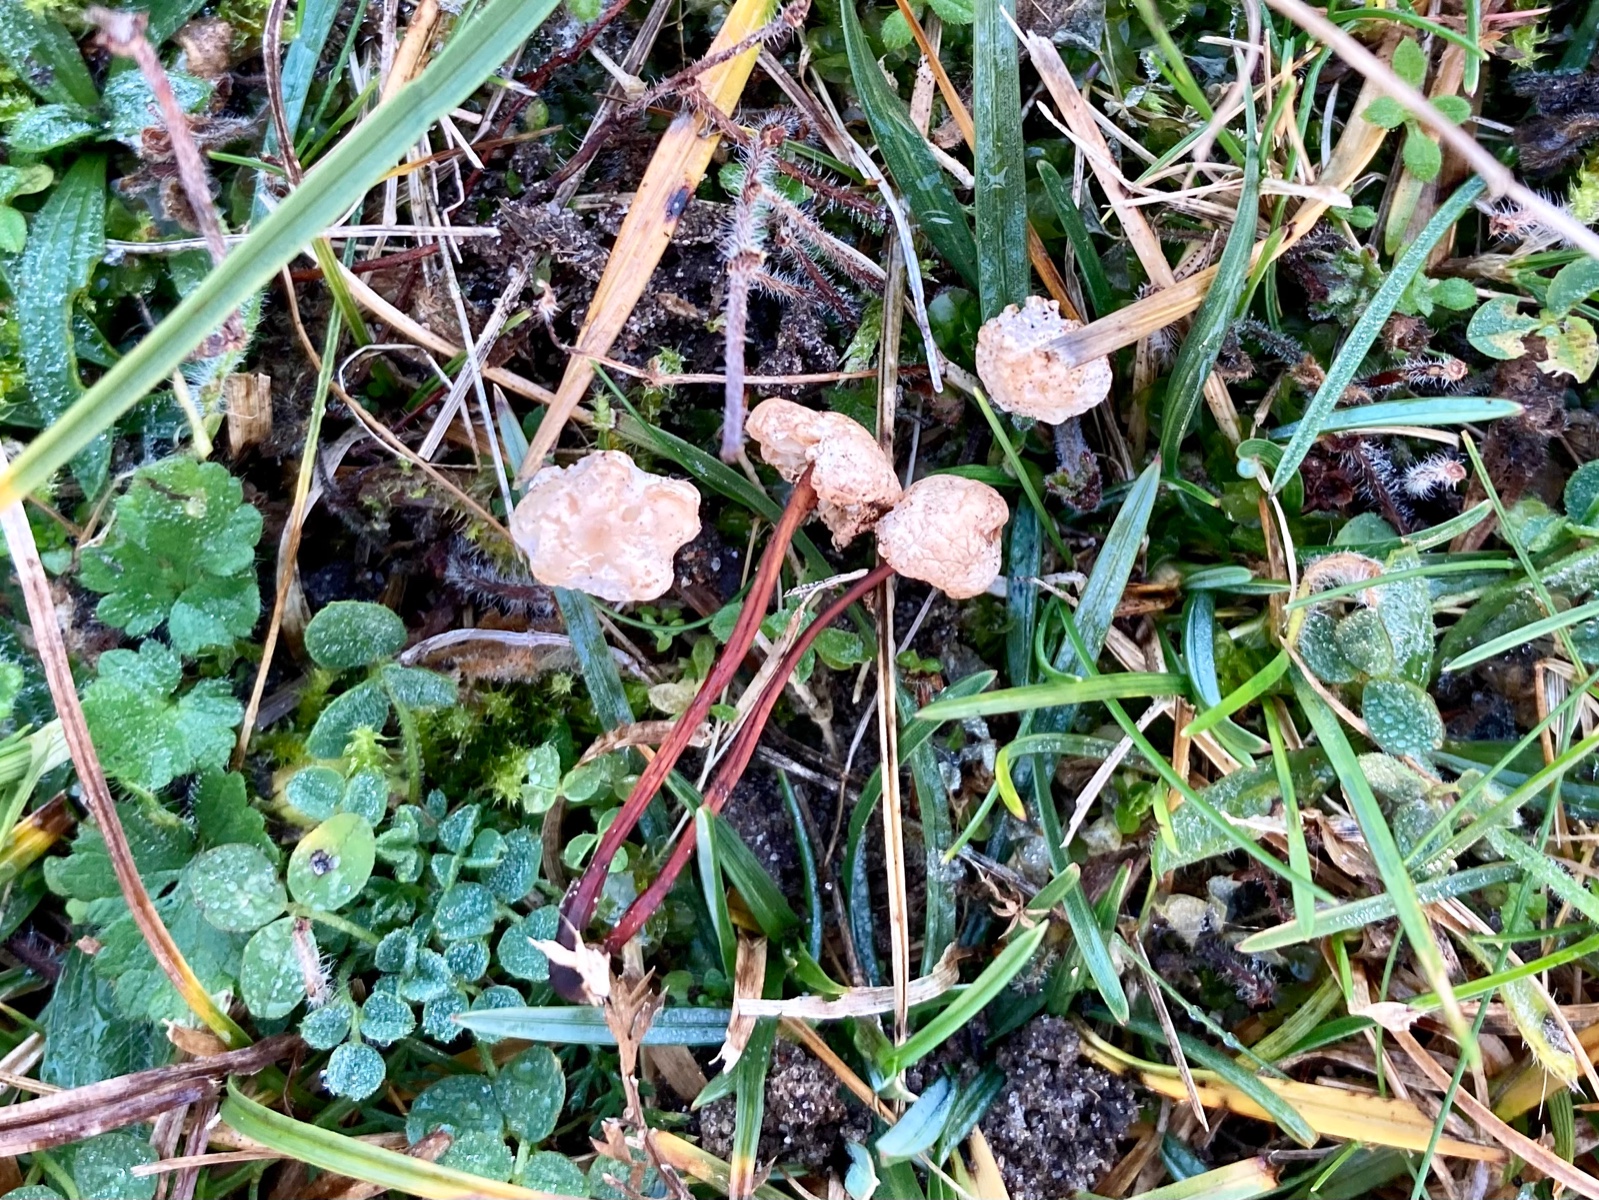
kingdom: Fungi
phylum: Basidiomycota
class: Agaricomycetes
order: Agaricales
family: Omphalotaceae
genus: Mycetinis
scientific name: Mycetinis scorodonius
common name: lille løghat
